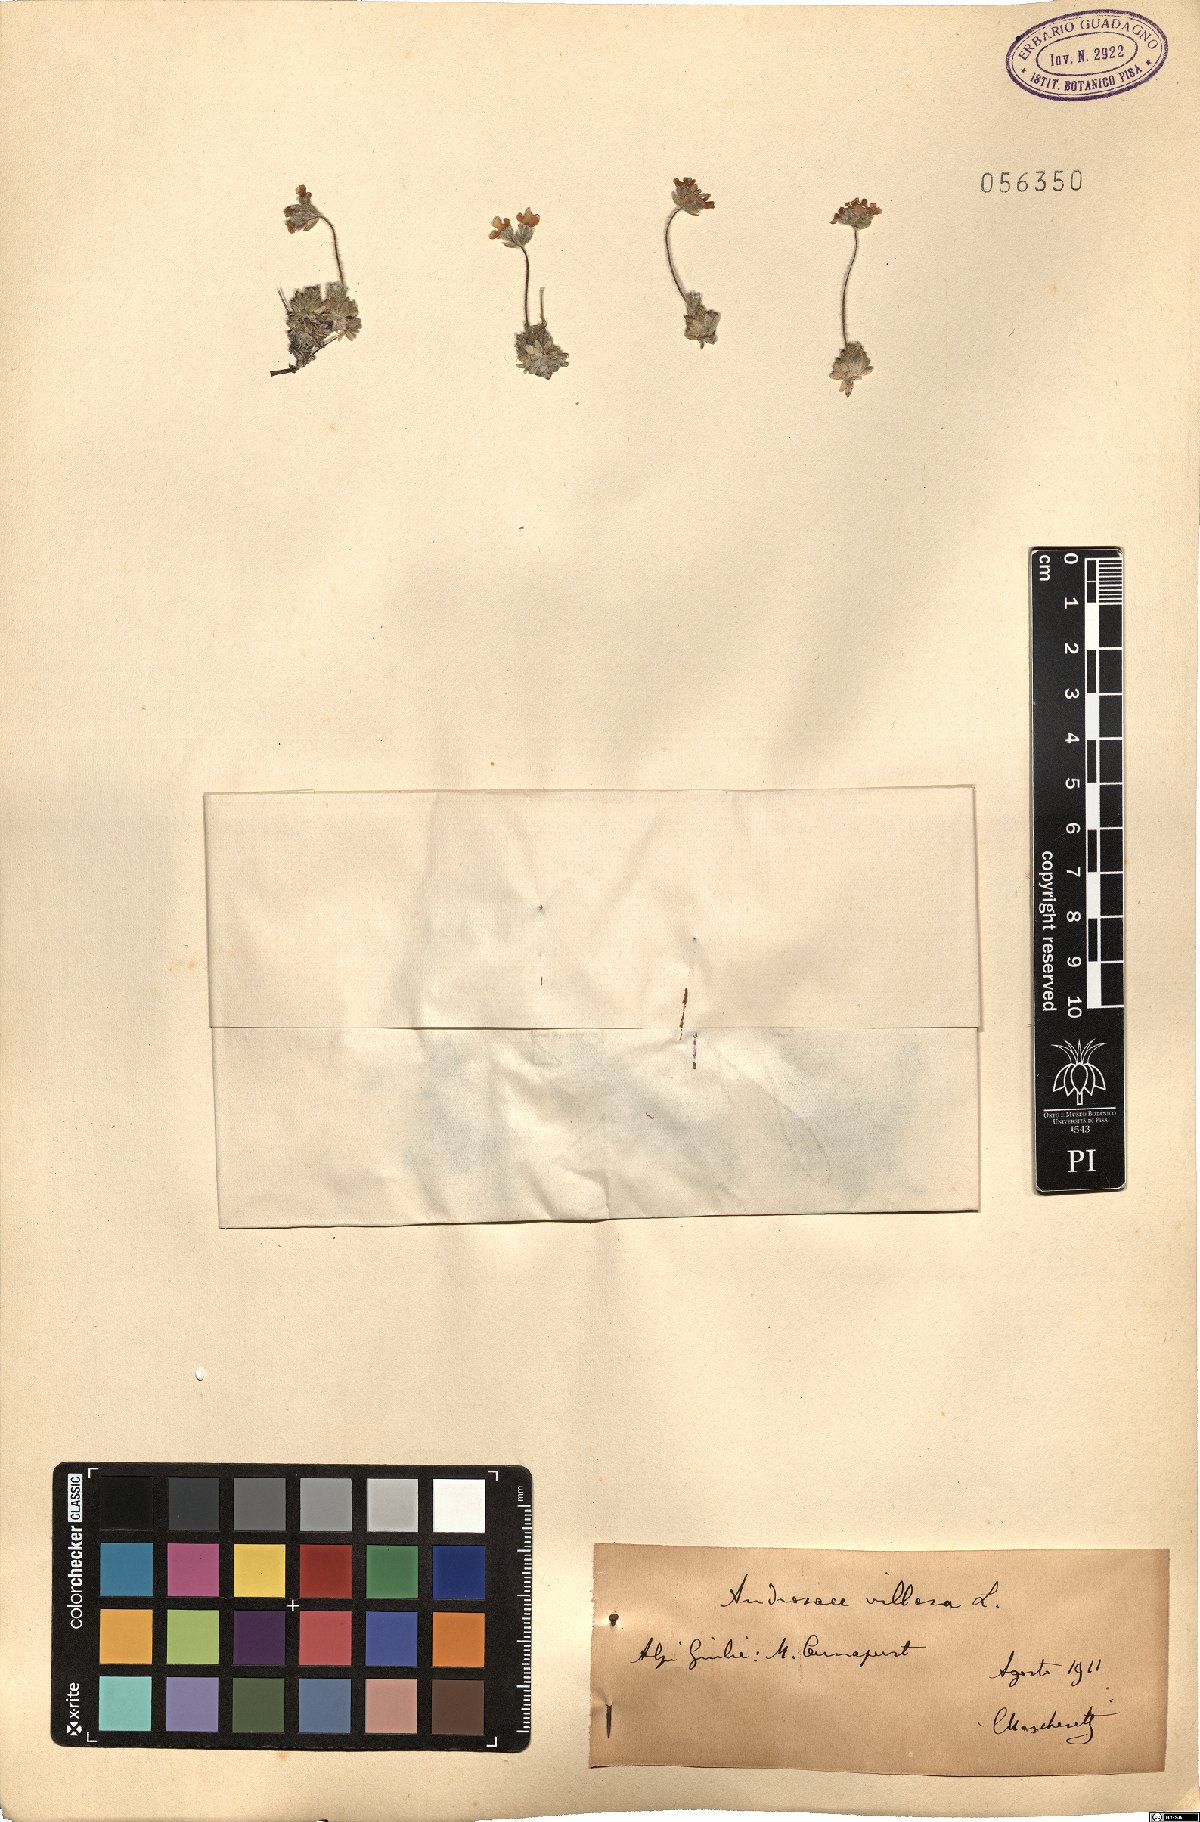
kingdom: Plantae
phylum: Tracheophyta
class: Magnoliopsida
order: Ericales
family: Primulaceae
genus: Androsace
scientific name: Androsace villosa
